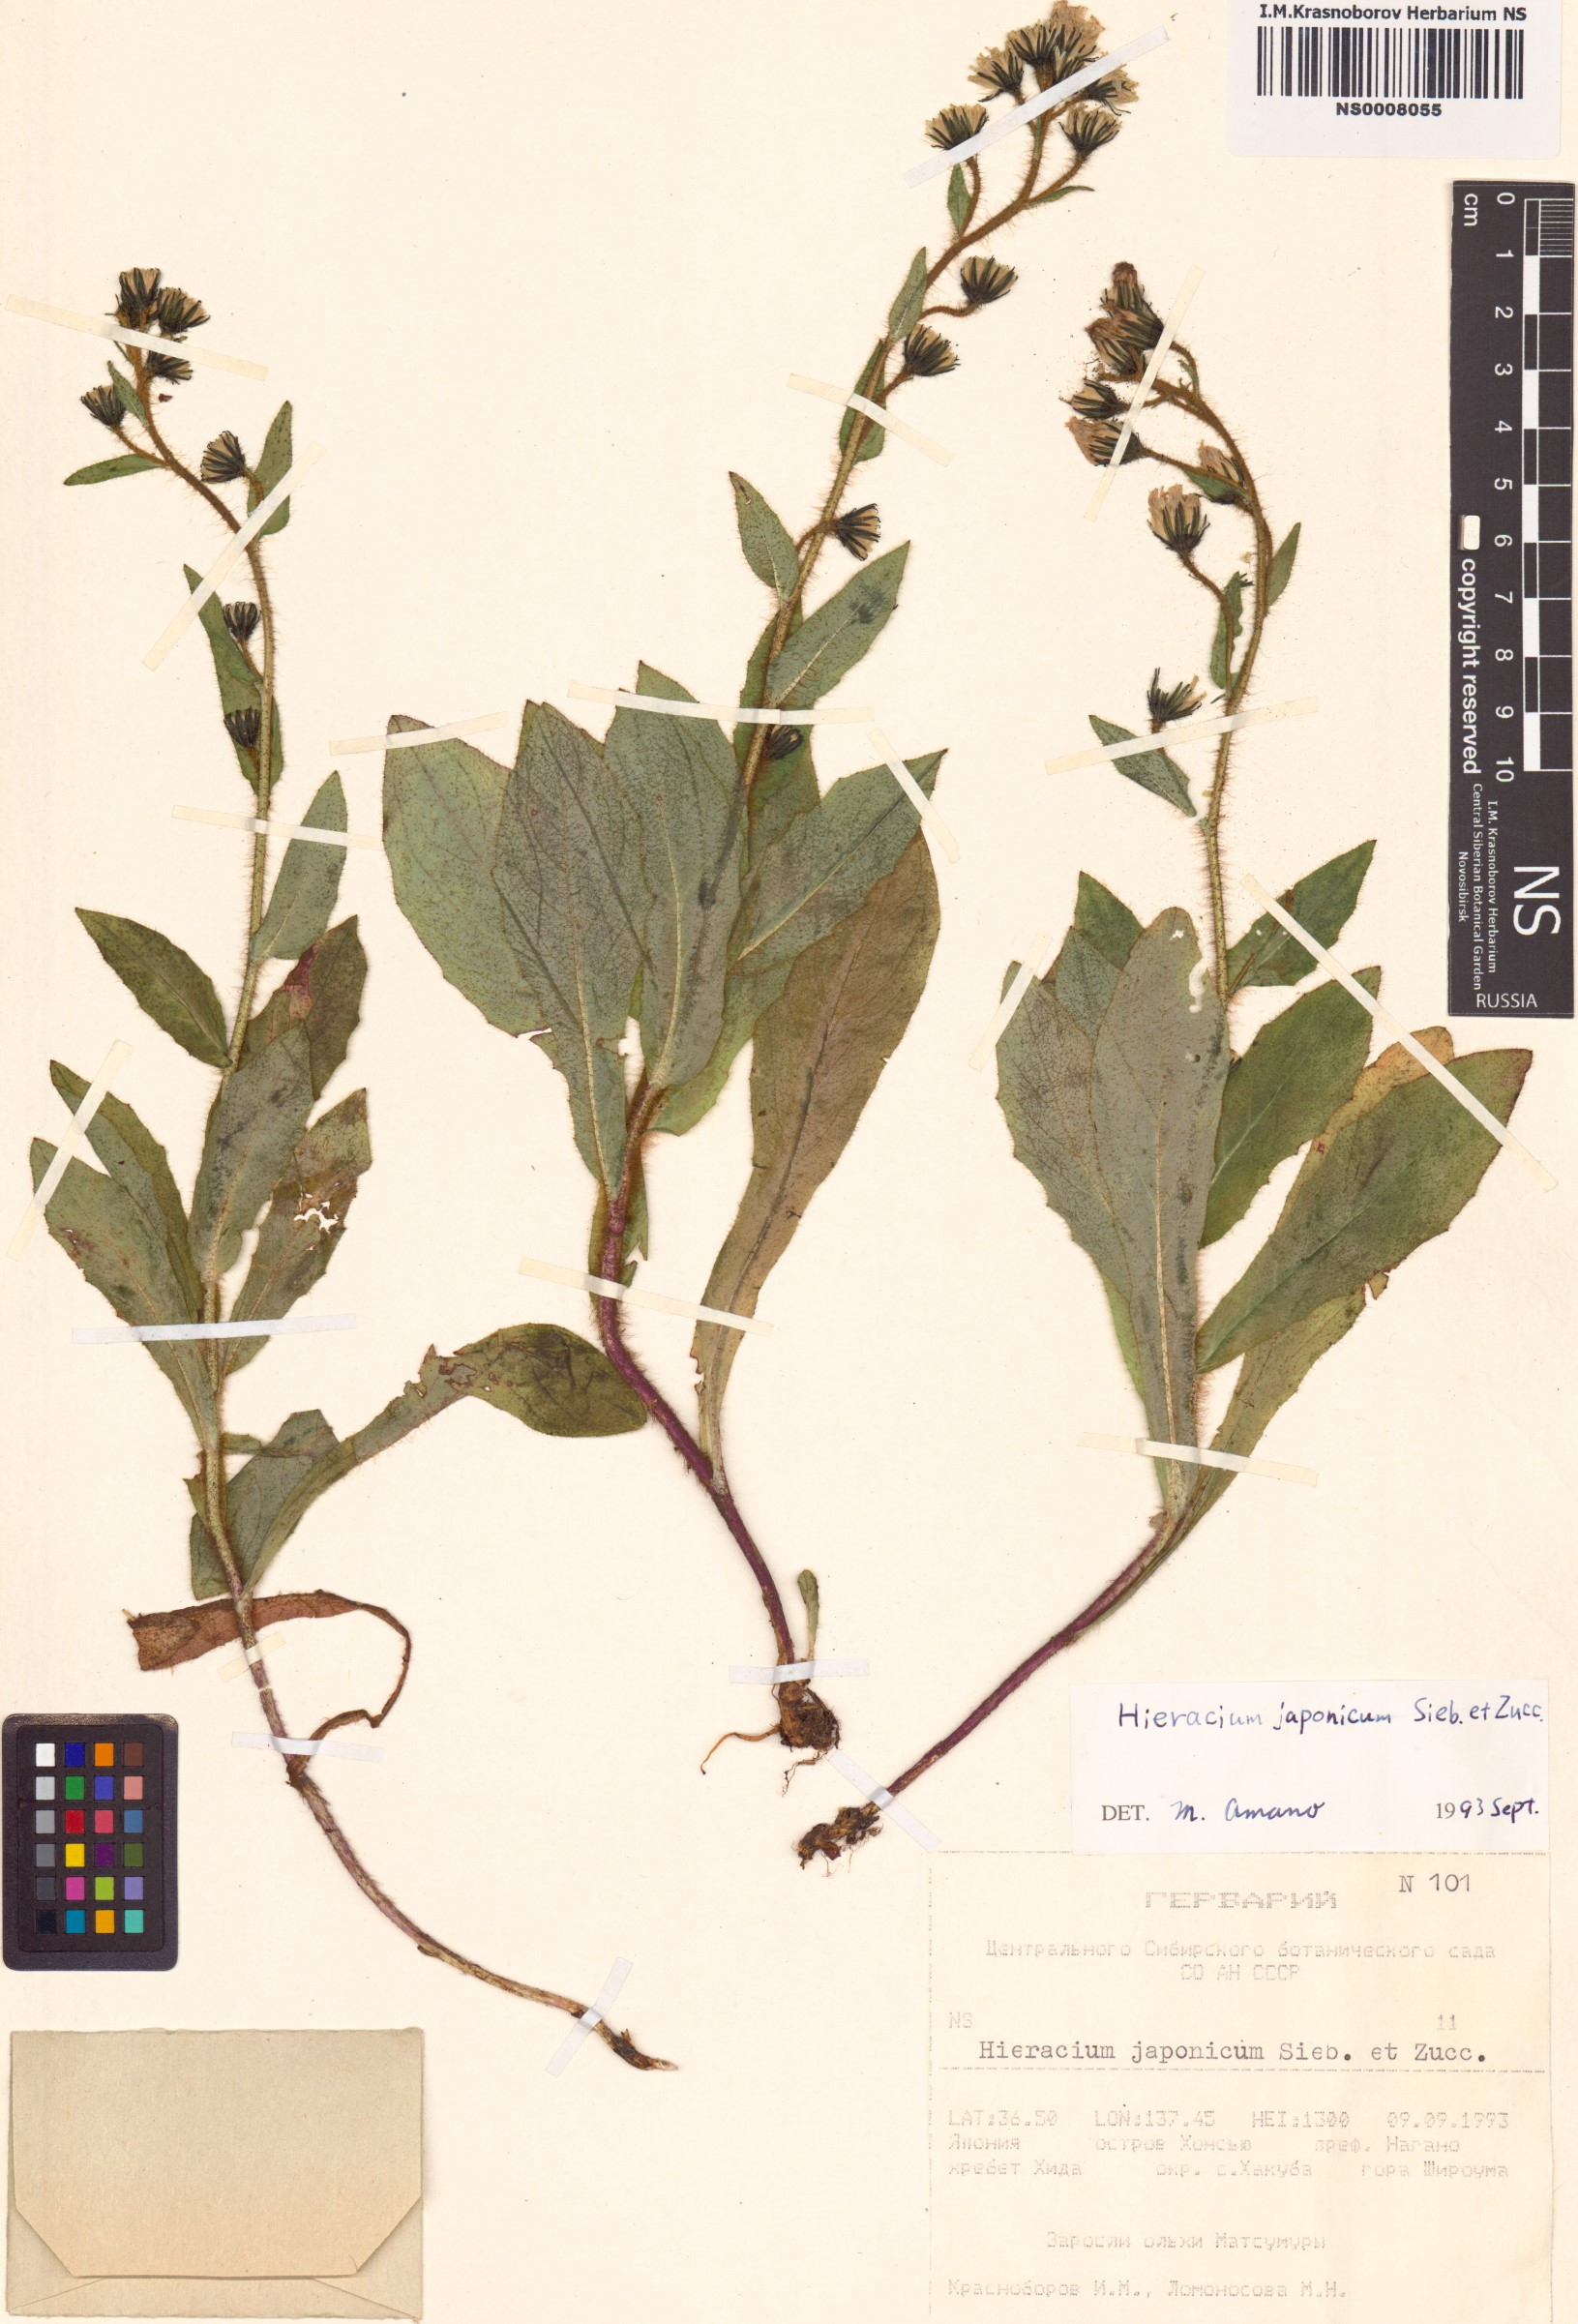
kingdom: Plantae
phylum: Tracheophyta
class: Magnoliopsida
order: Asterales
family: Asteraceae
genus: Hieracium
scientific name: Hieracium japonicum
